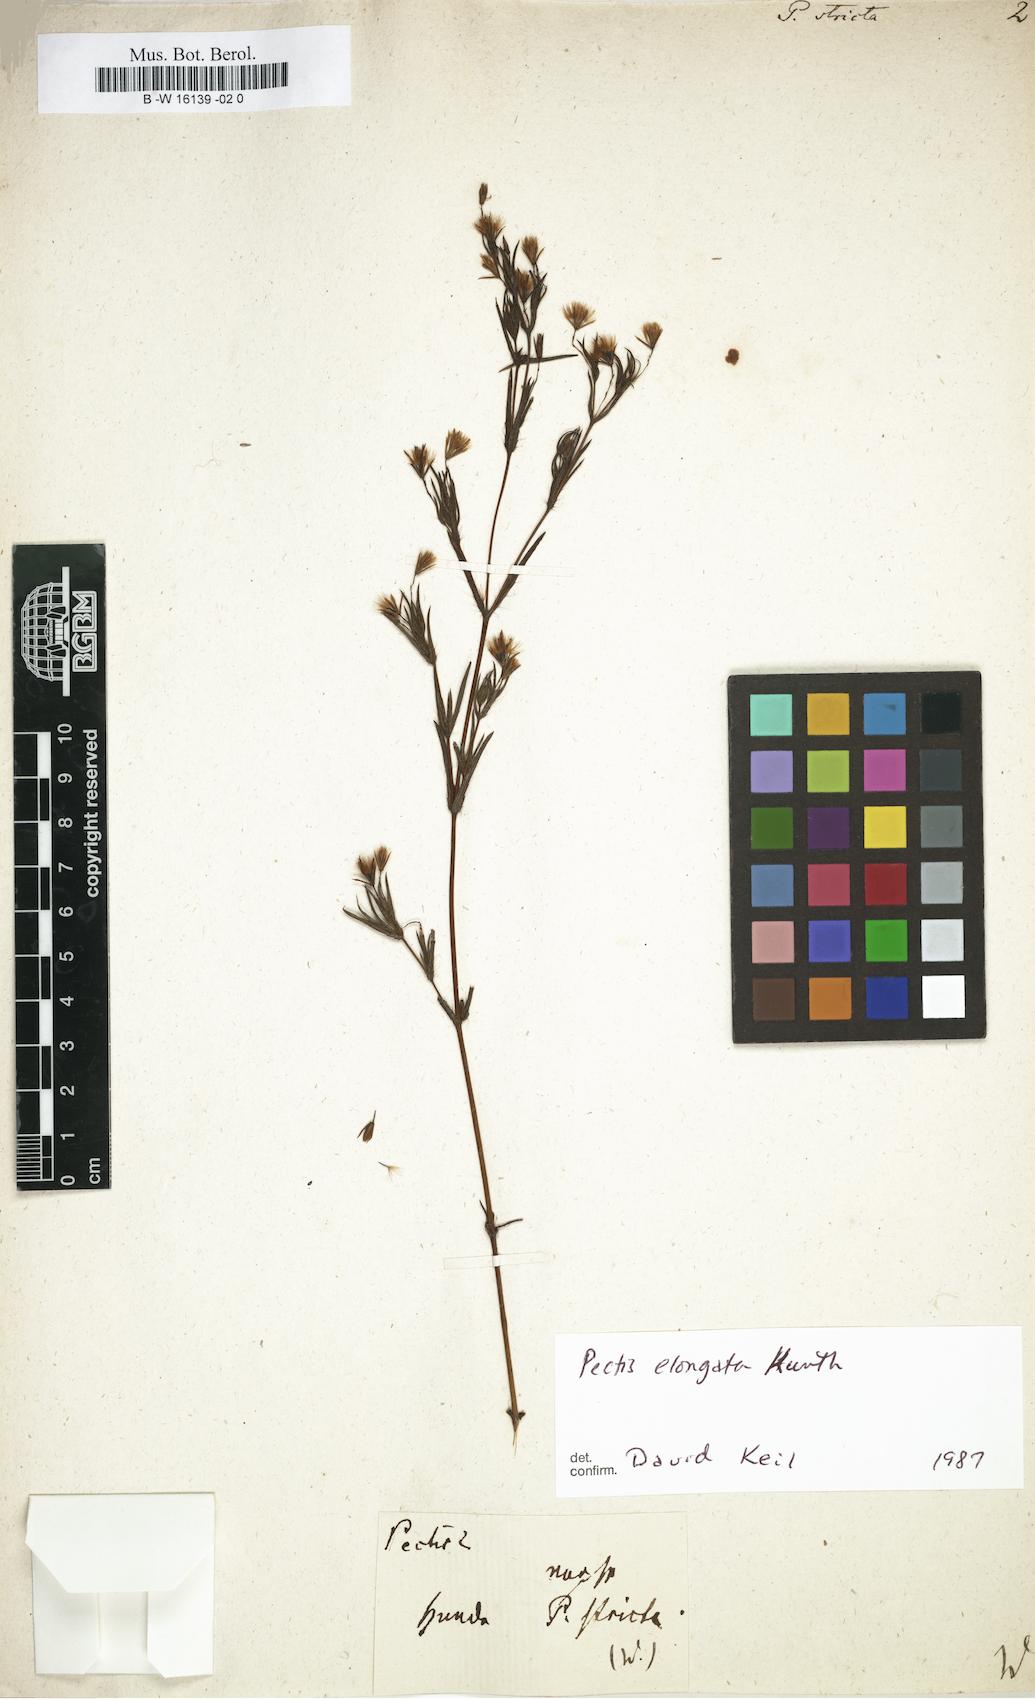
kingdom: Plantae
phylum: Tracheophyta
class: Magnoliopsida
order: Asterales
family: Asteraceae
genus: Pectis
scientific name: Pectis elongata
